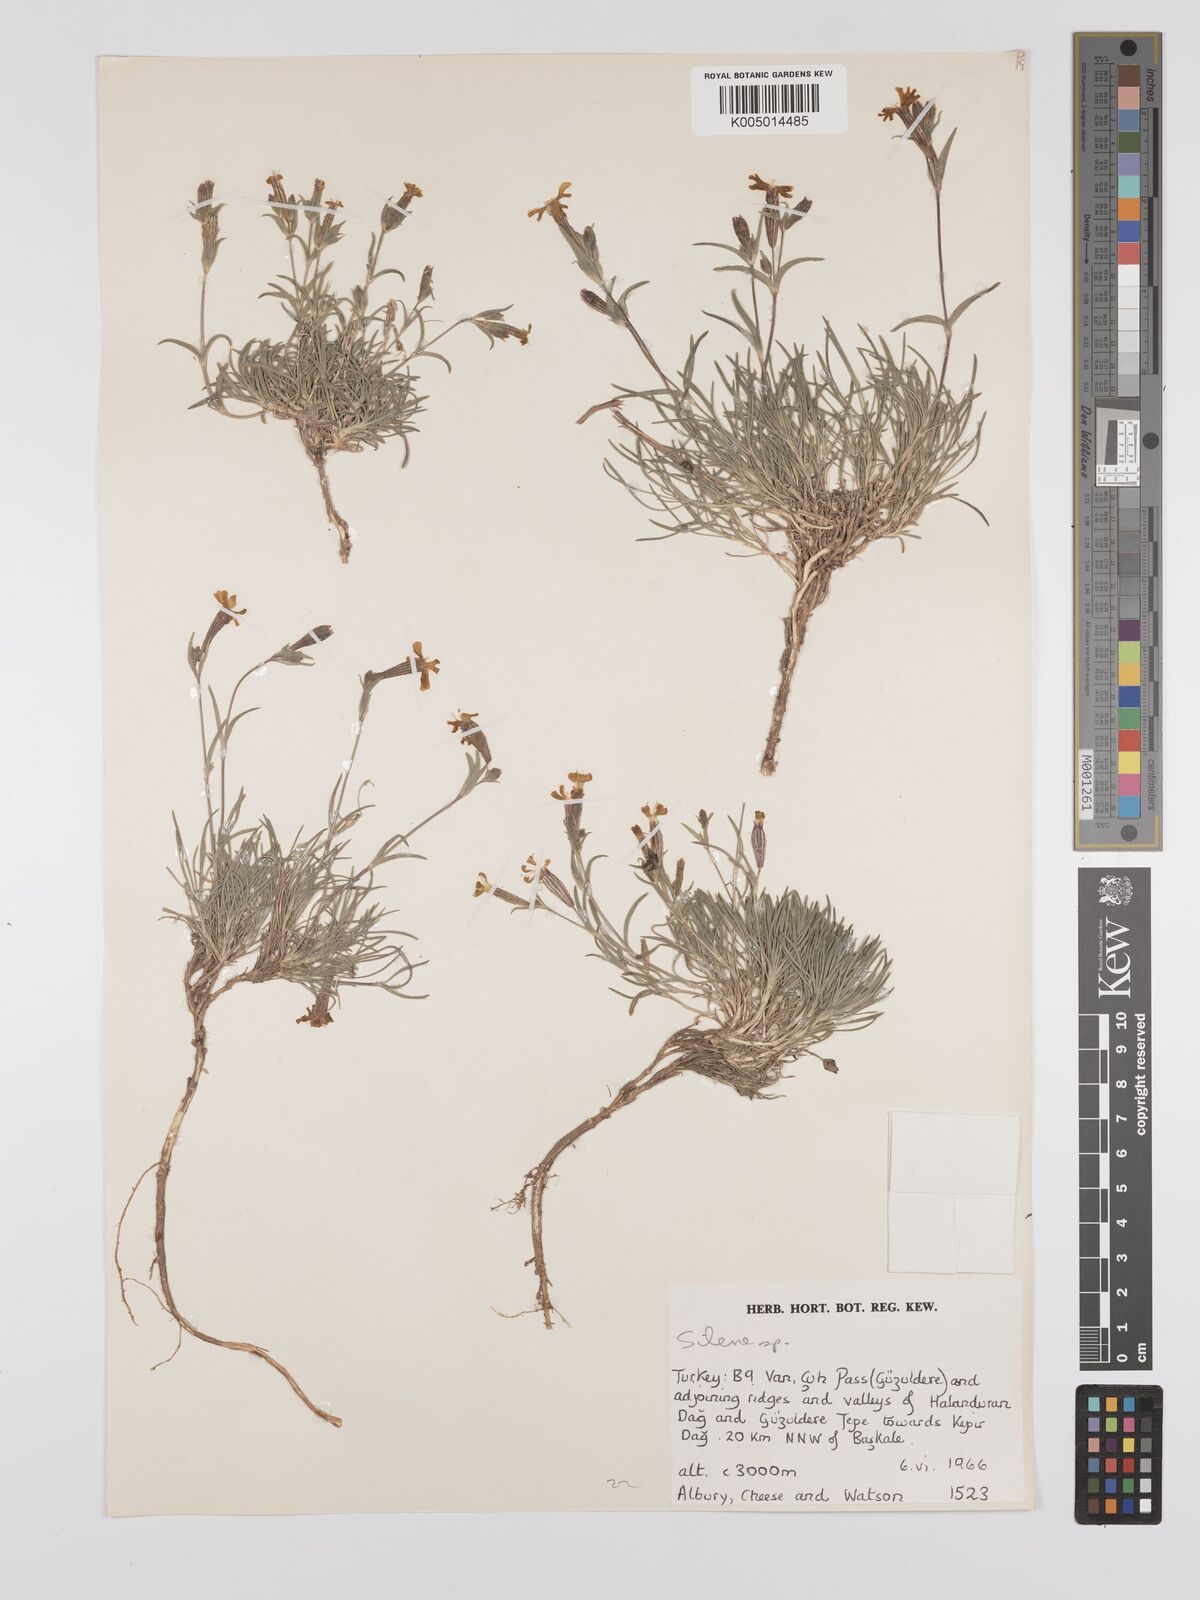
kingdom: Plantae
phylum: Tracheophyta
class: Magnoliopsida
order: Caryophyllales
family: Caryophyllaceae
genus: Silene
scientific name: Silene
